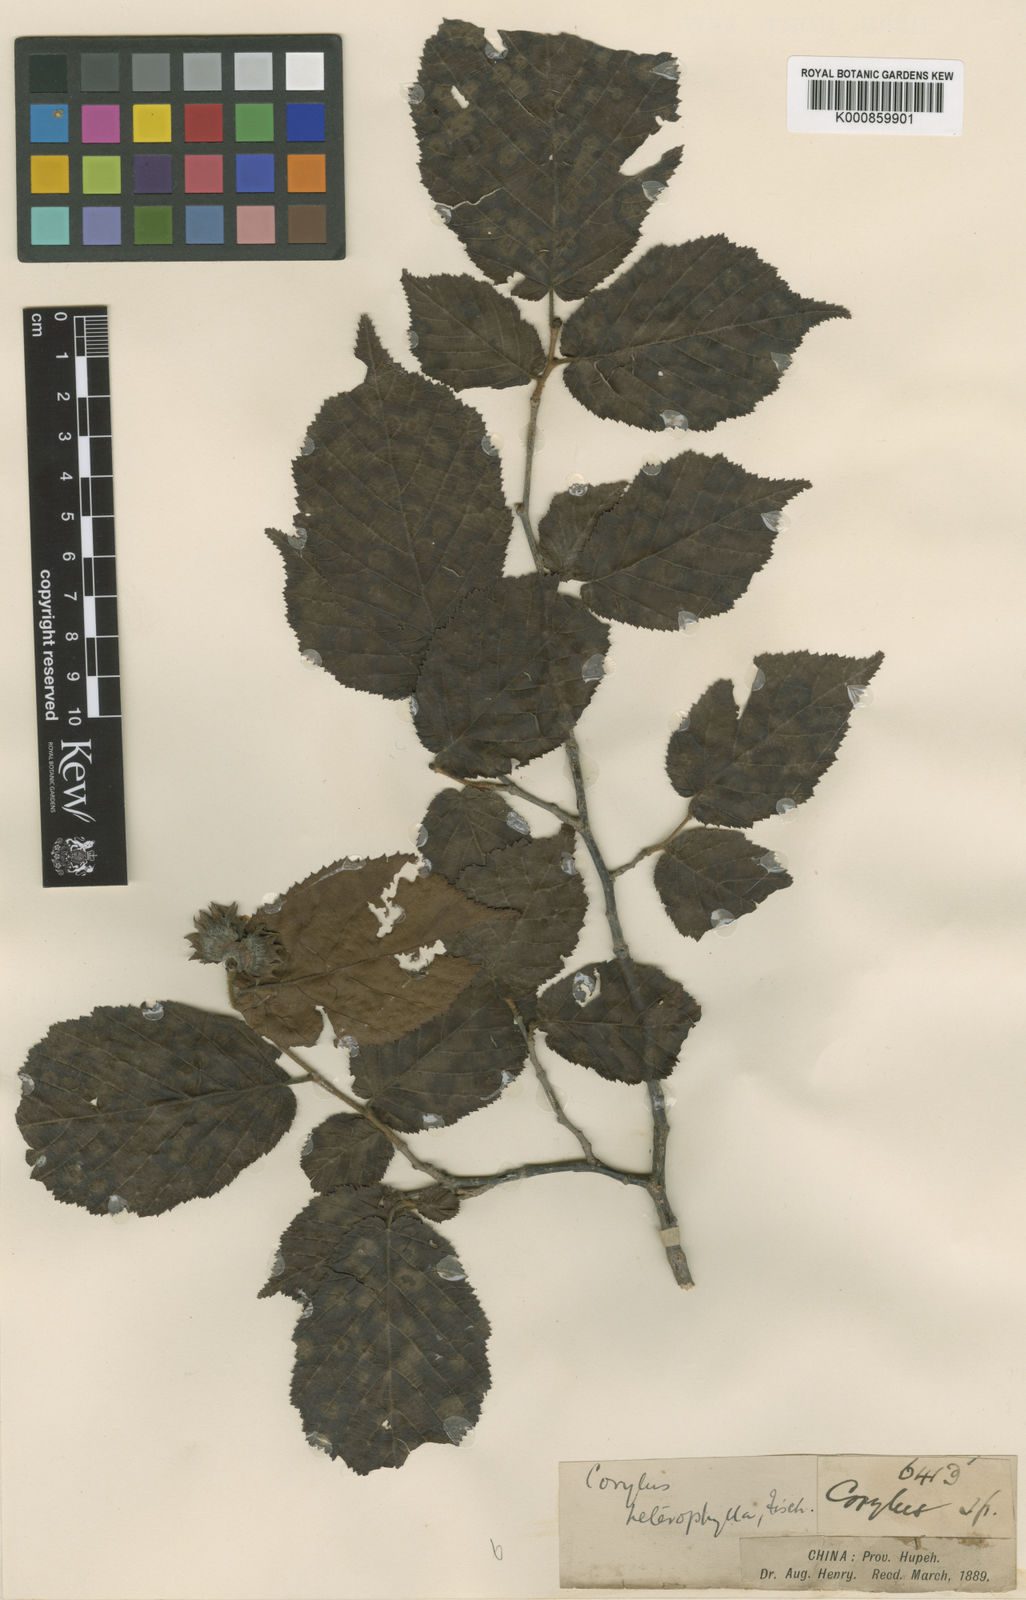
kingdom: Plantae
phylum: Tracheophyta
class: Magnoliopsida
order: Fagales
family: Betulaceae
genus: Corylus
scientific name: Corylus heterophylla
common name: Siberian hazelnut
